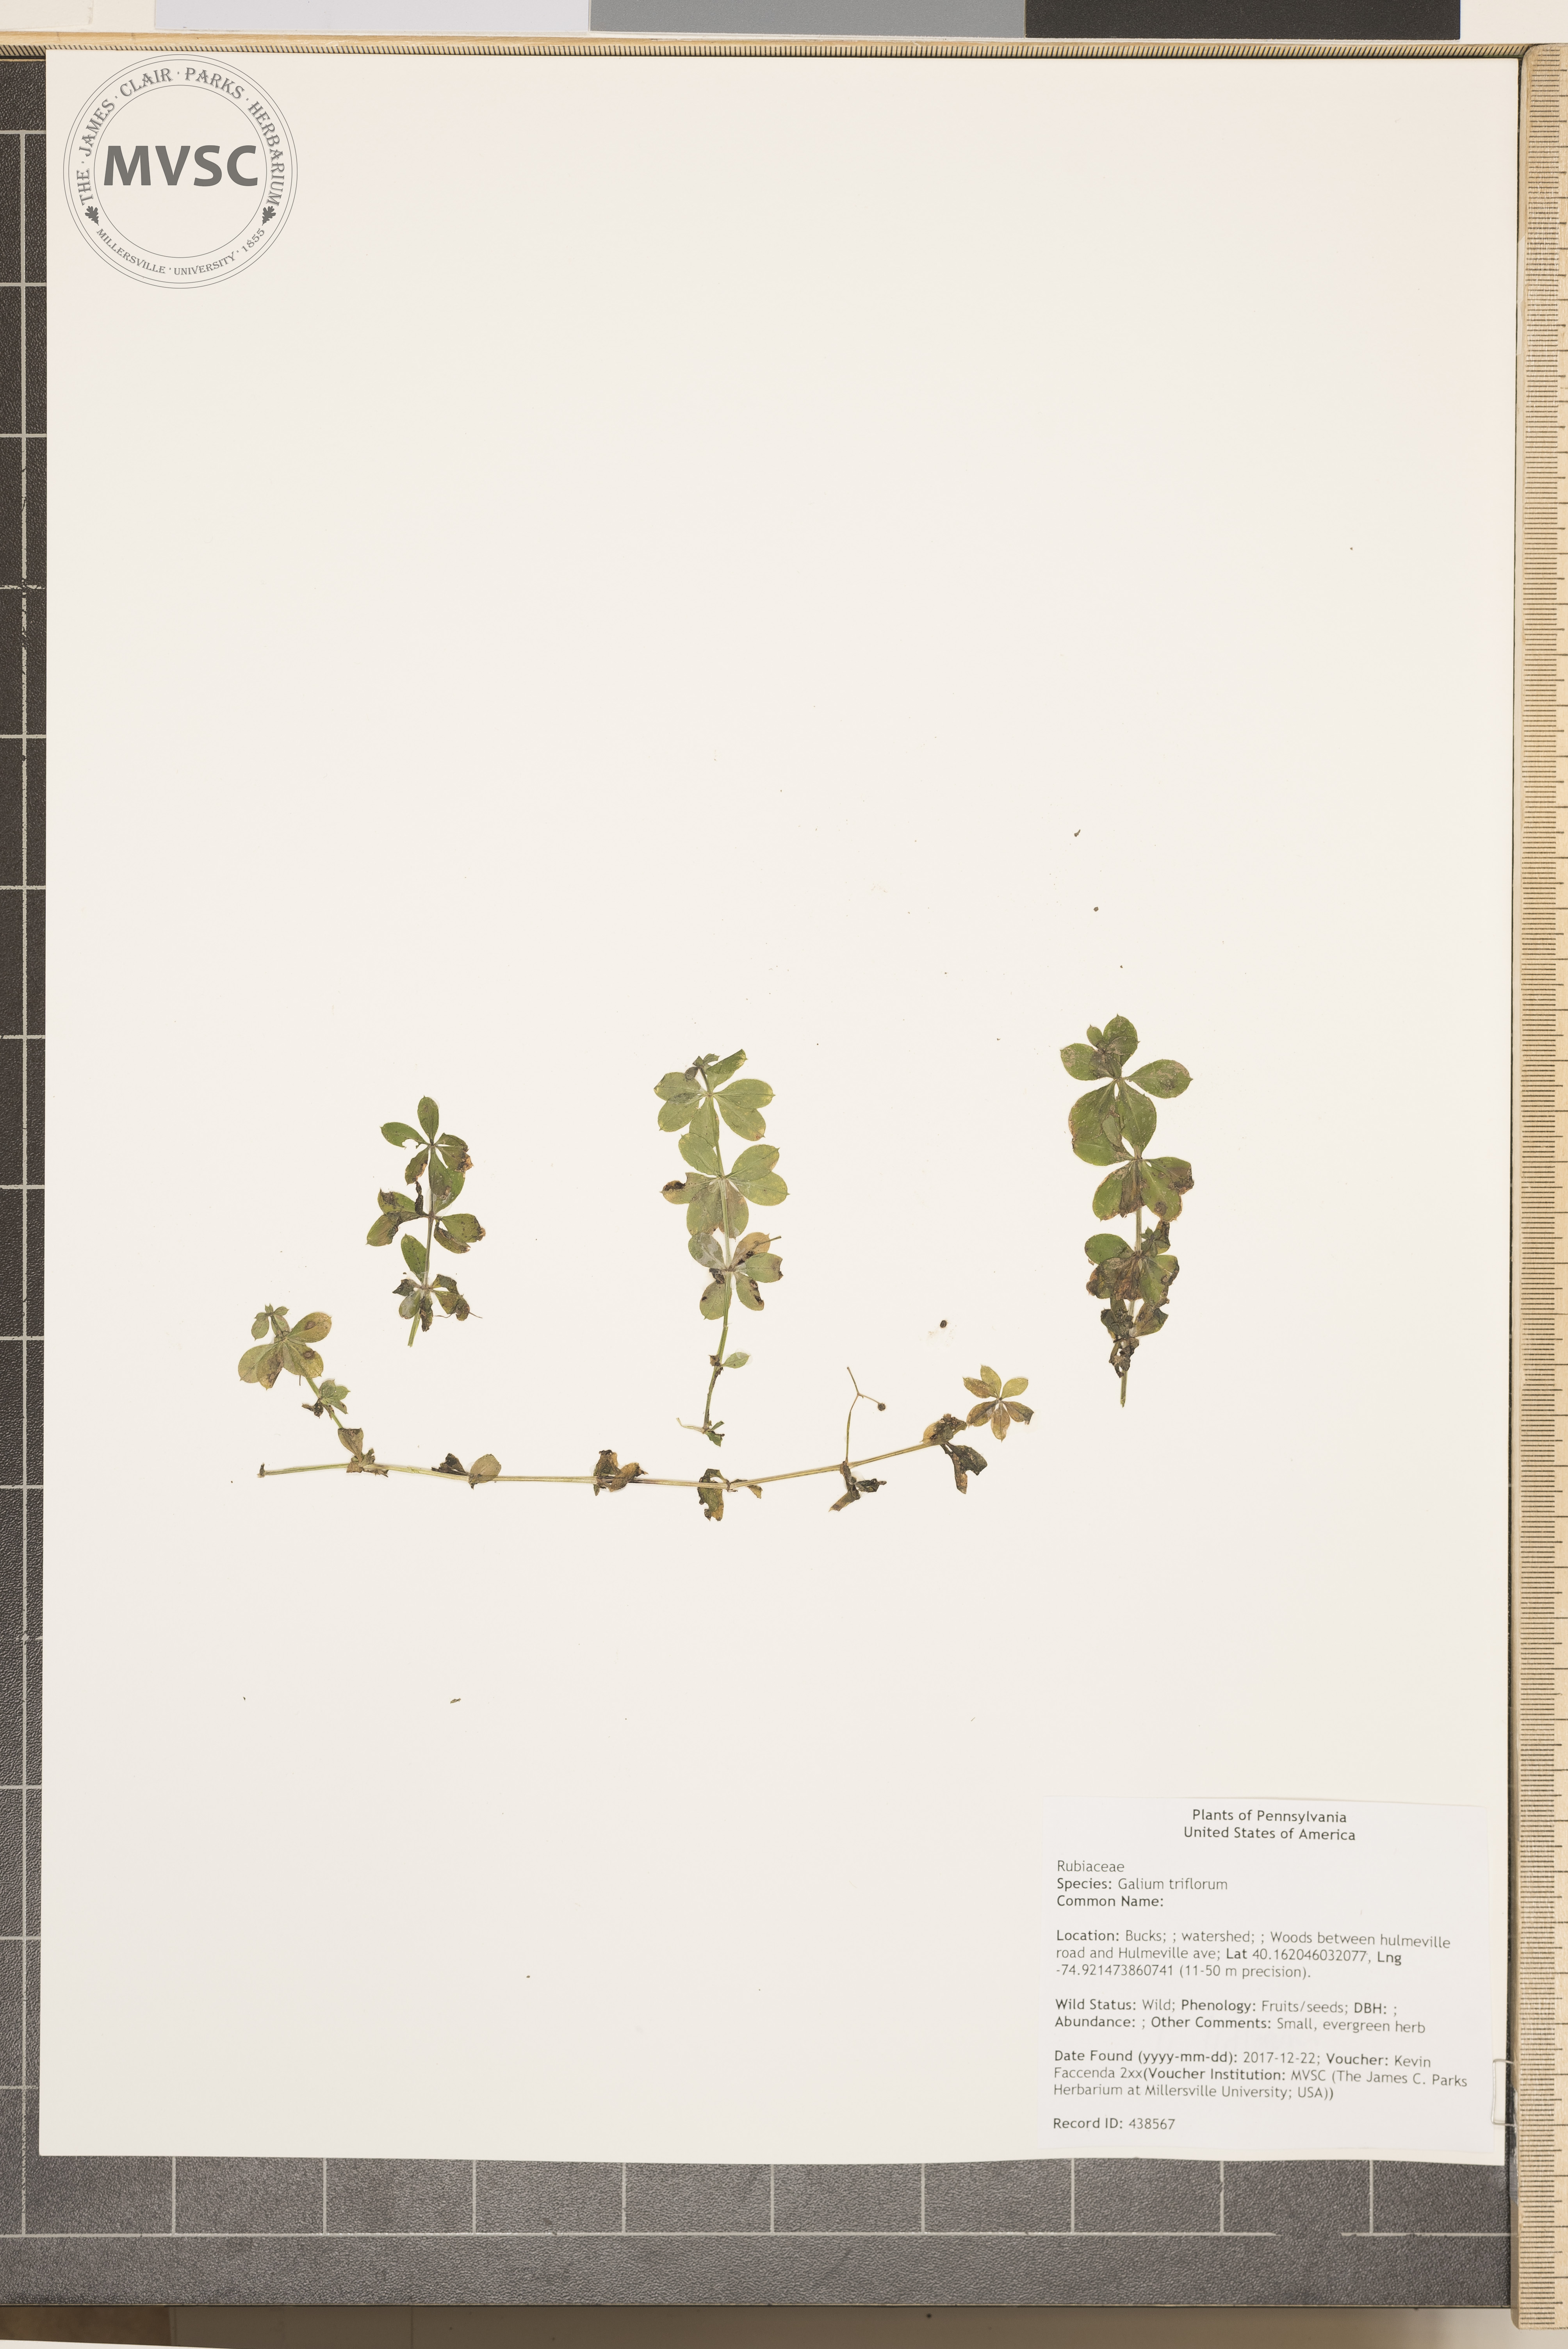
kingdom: Plantae
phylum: Tracheophyta
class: Magnoliopsida
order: Gentianales
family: Rubiaceae
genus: Galium
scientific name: Galium triflorum
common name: Fragrant bedstraw
